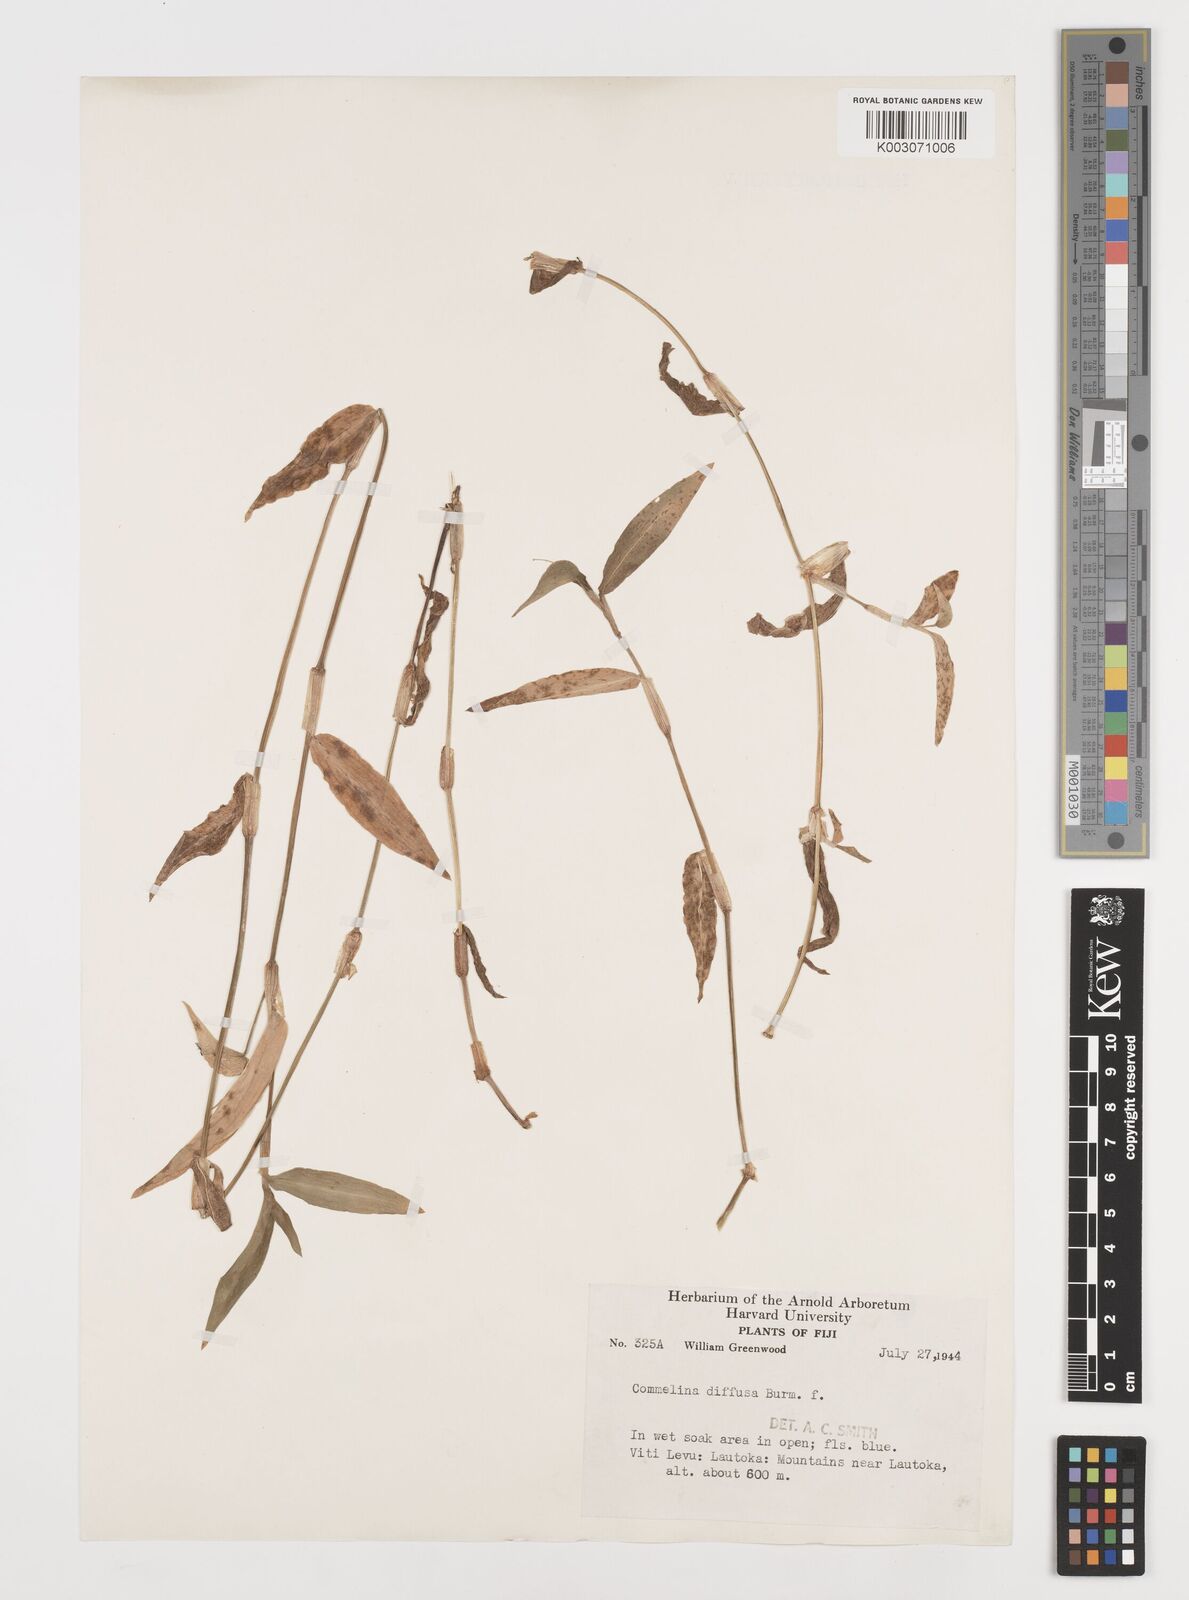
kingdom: Plantae
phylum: Tracheophyta
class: Liliopsida
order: Commelinales
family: Commelinaceae
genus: Commelina
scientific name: Commelina diffusa
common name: Climbing dayflower
